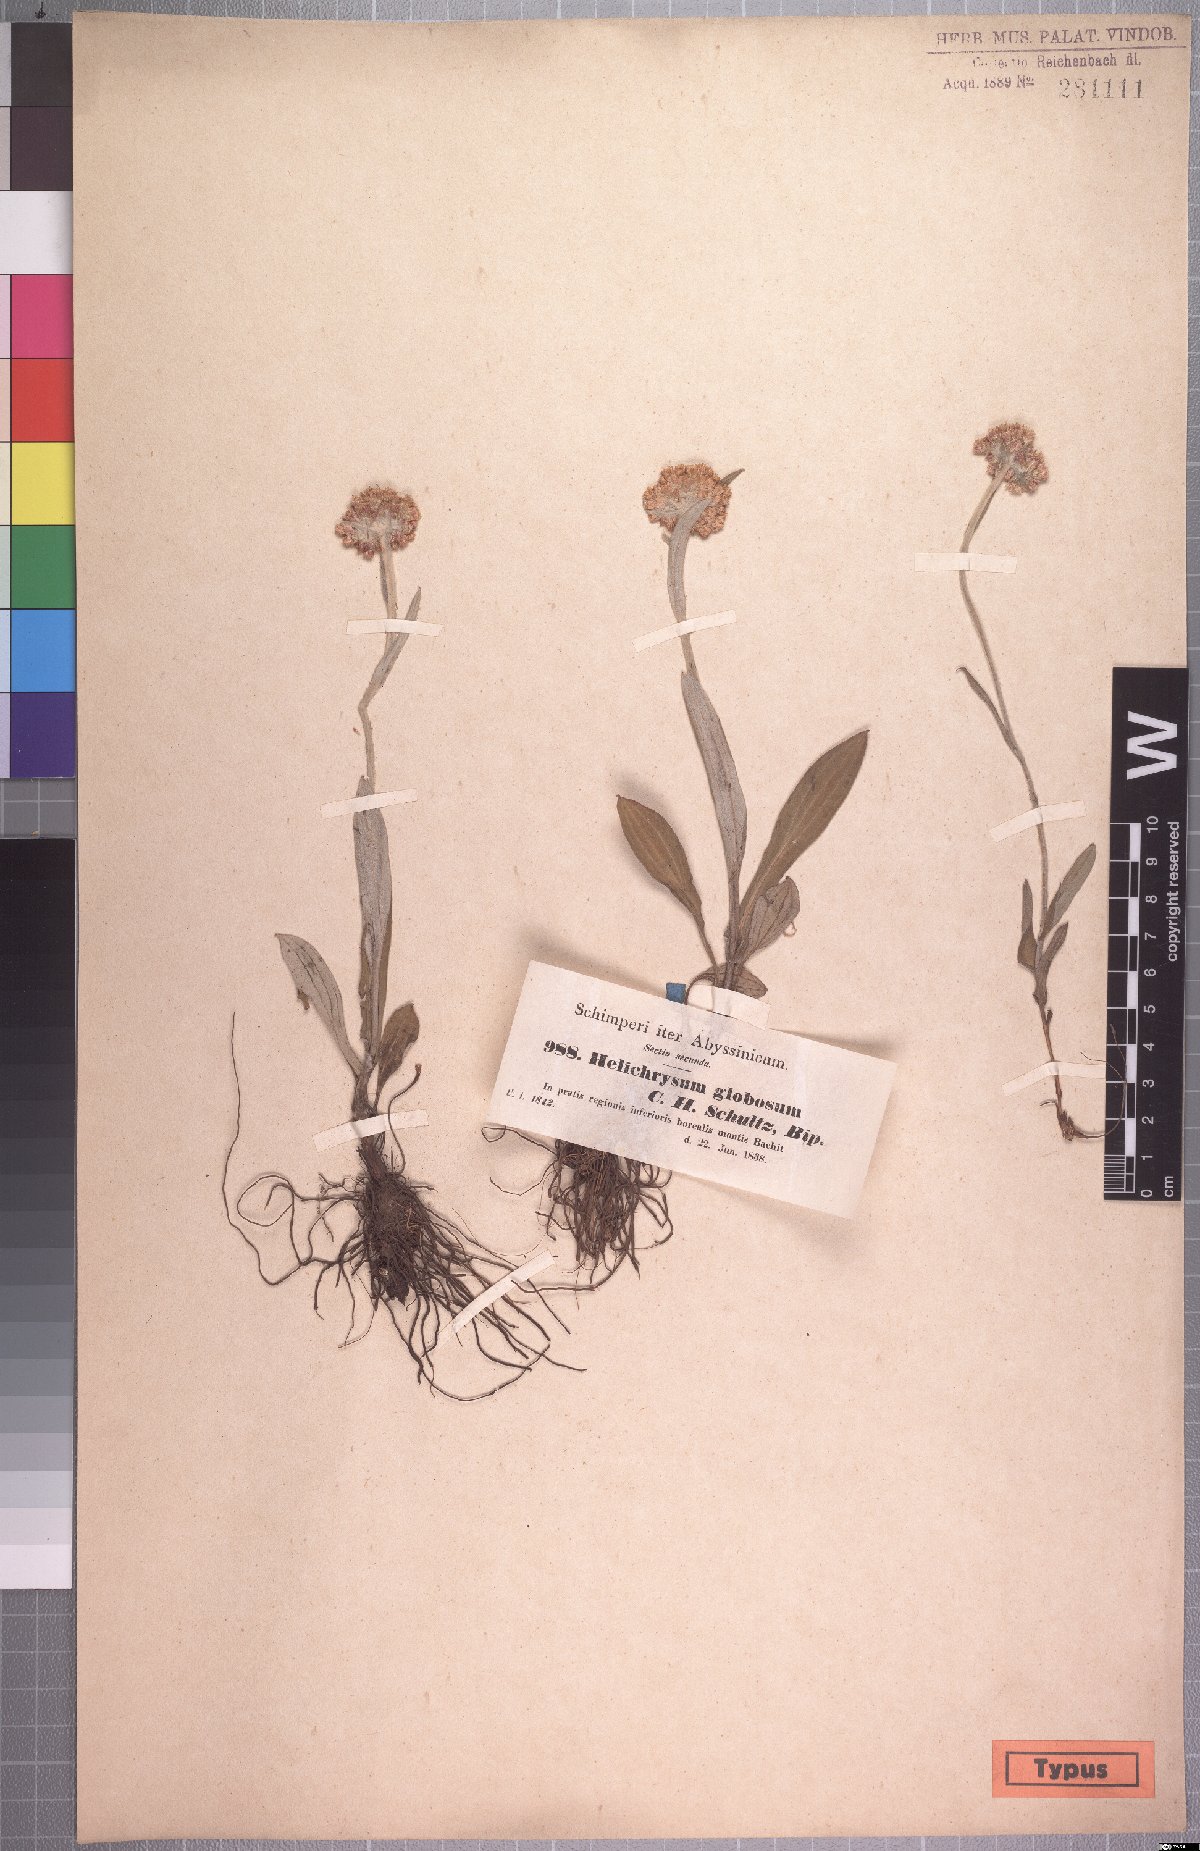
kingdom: Plantae
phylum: Tracheophyta
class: Magnoliopsida
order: Asterales
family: Asteraceae
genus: Helichrysum
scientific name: Helichrysum globosum
